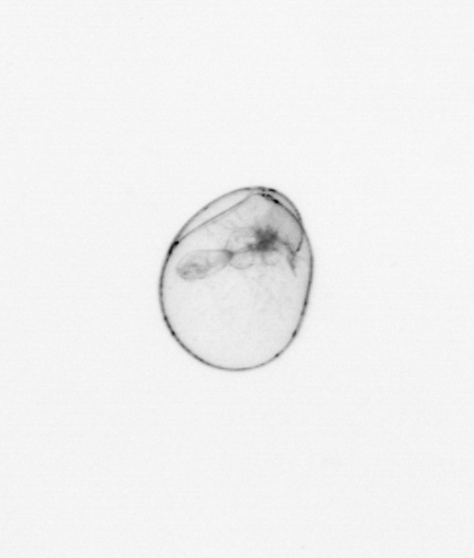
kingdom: Chromista
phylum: Myzozoa
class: Dinophyceae
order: Noctilucales
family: Noctilucaceae
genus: Noctiluca
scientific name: Noctiluca scintillans
